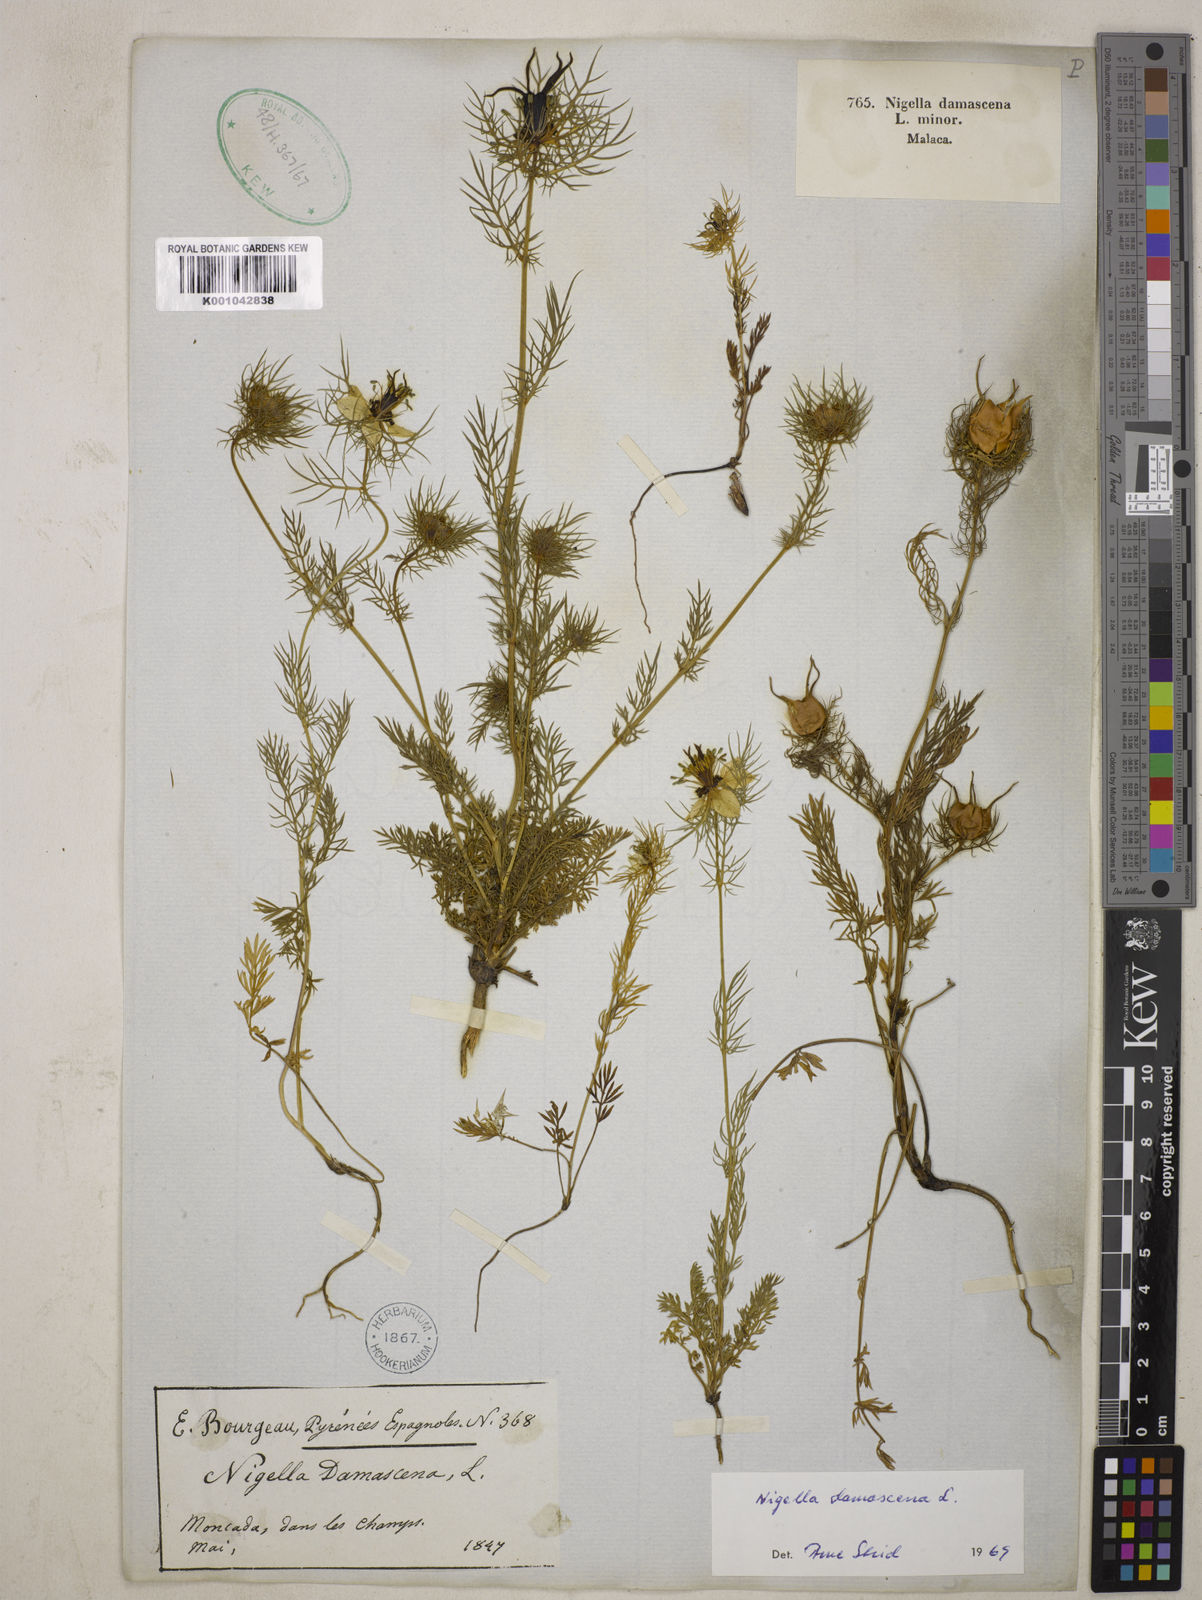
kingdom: Plantae
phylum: Tracheophyta
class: Magnoliopsida
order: Ranunculales
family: Ranunculaceae
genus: Nigella
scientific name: Nigella damascena
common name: Love-in-a-mist
